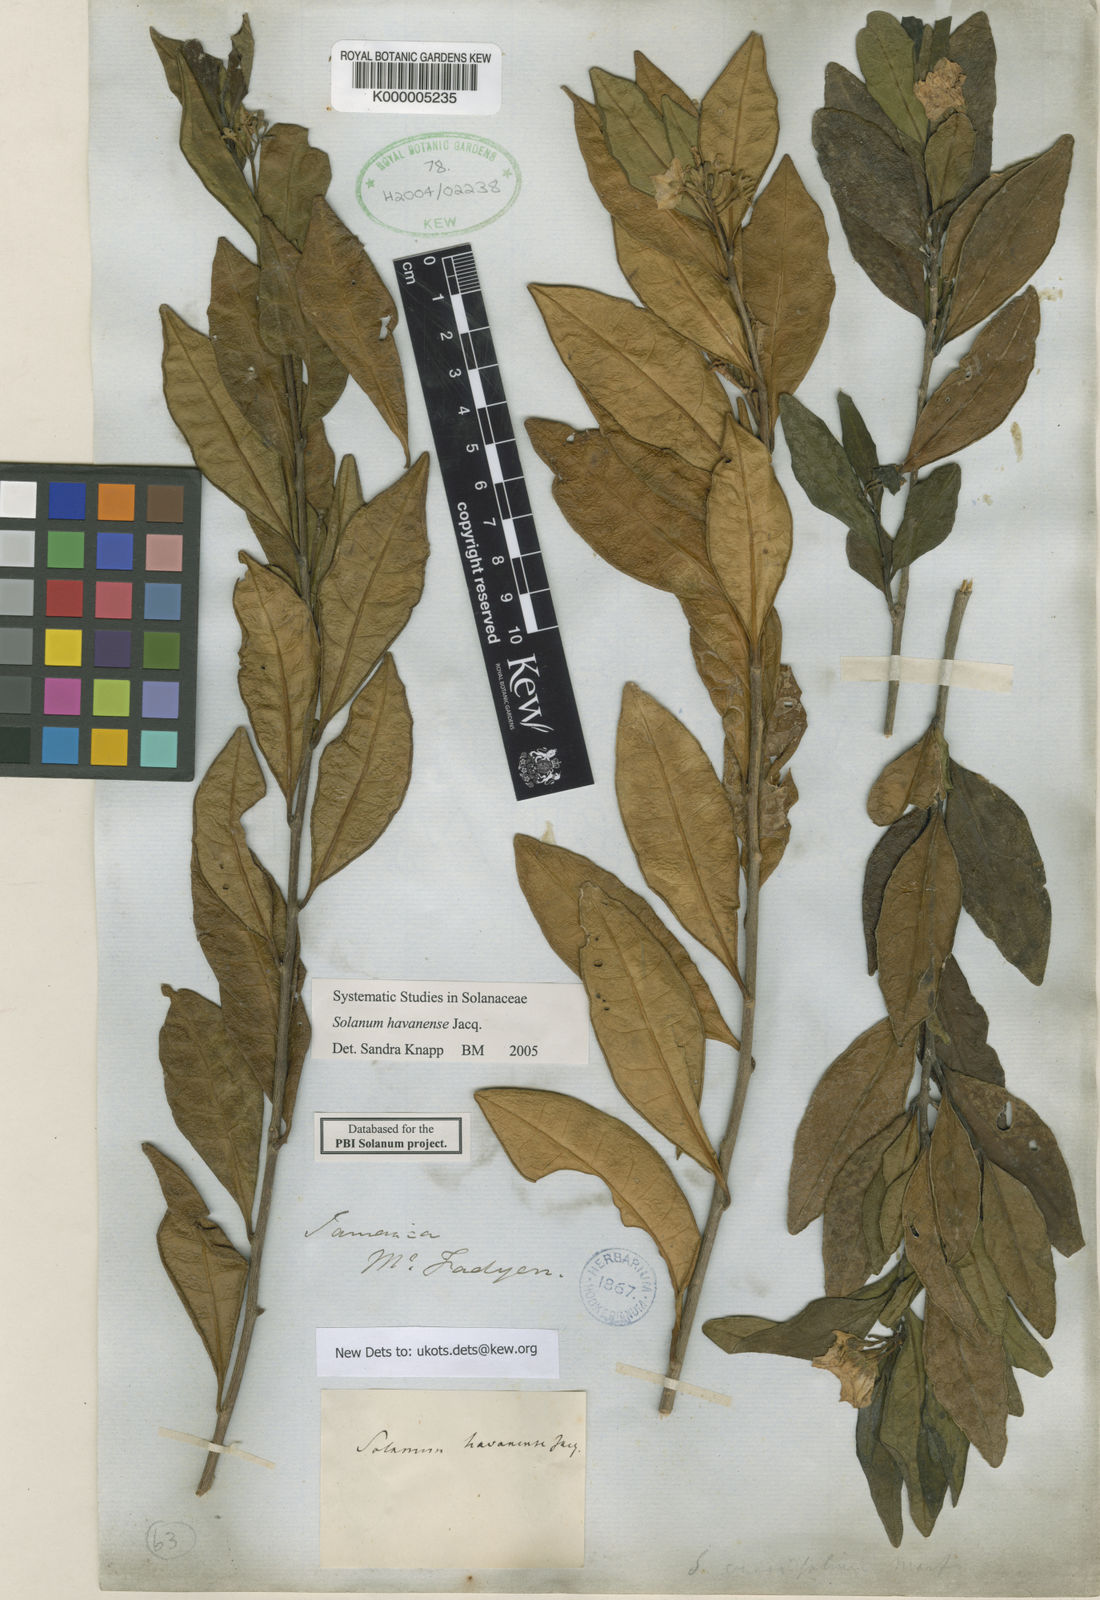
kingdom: Plantae
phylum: Tracheophyta
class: Magnoliopsida
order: Solanales
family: Solanaceae
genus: Solanum
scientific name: Solanum havanense
